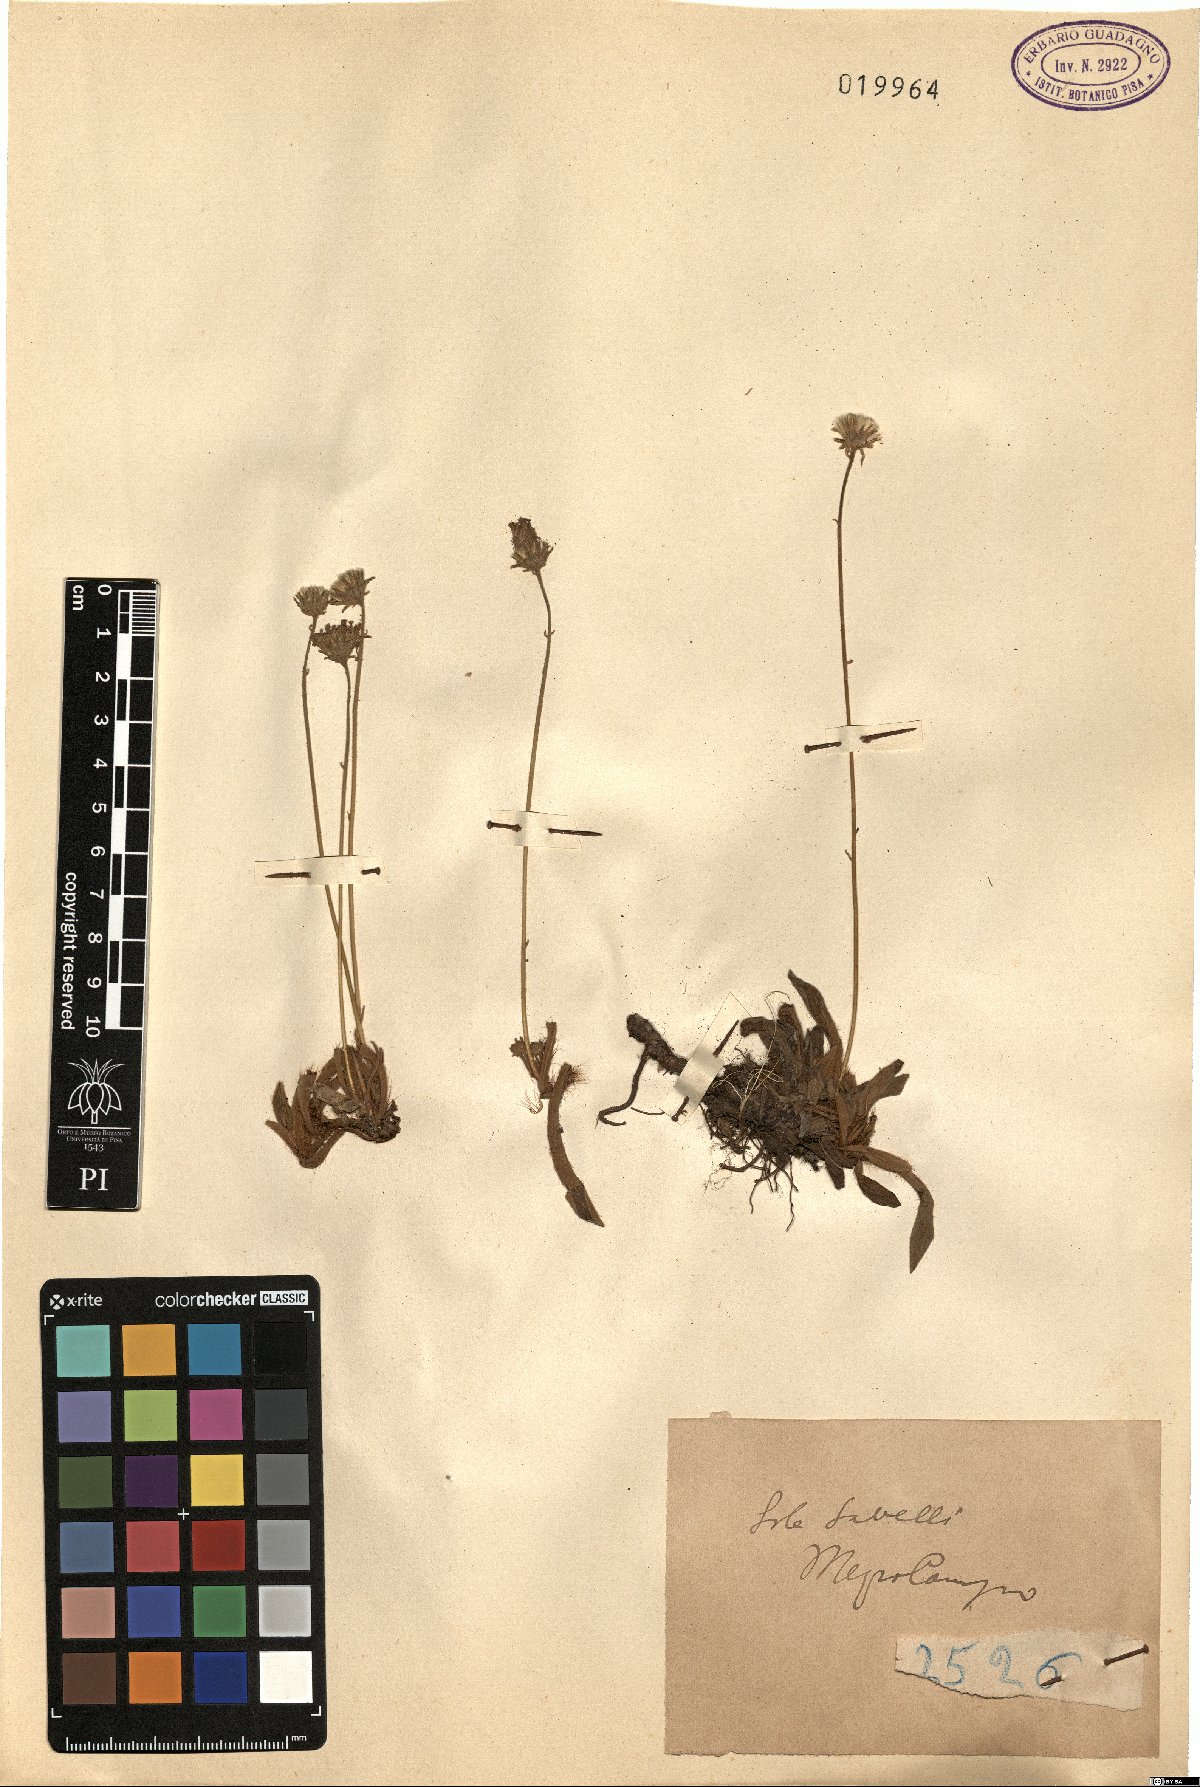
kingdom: Plantae
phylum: Tracheophyta
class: Magnoliopsida
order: Asterales
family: Asteraceae
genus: Hieracium
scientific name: Hieracium
